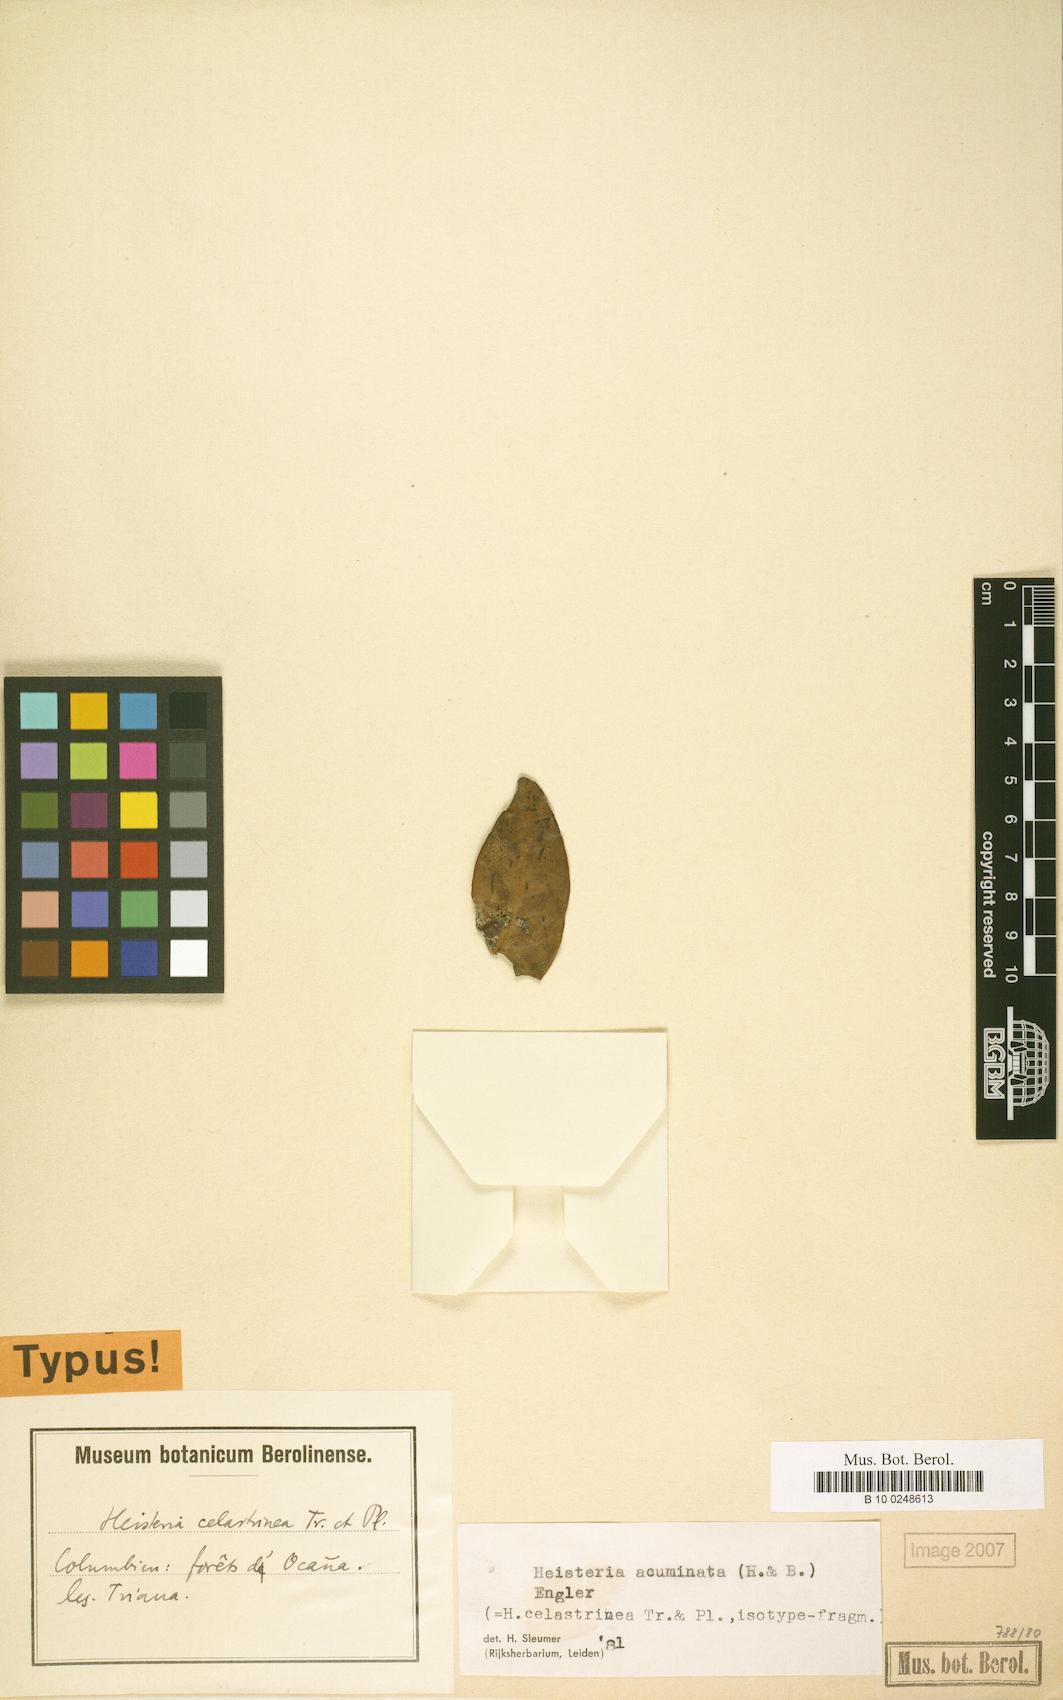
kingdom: Plantae
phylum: Tracheophyta
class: Magnoliopsida
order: Santalales
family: Erythropalaceae
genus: Heisteria
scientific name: Heisteria acuminata
